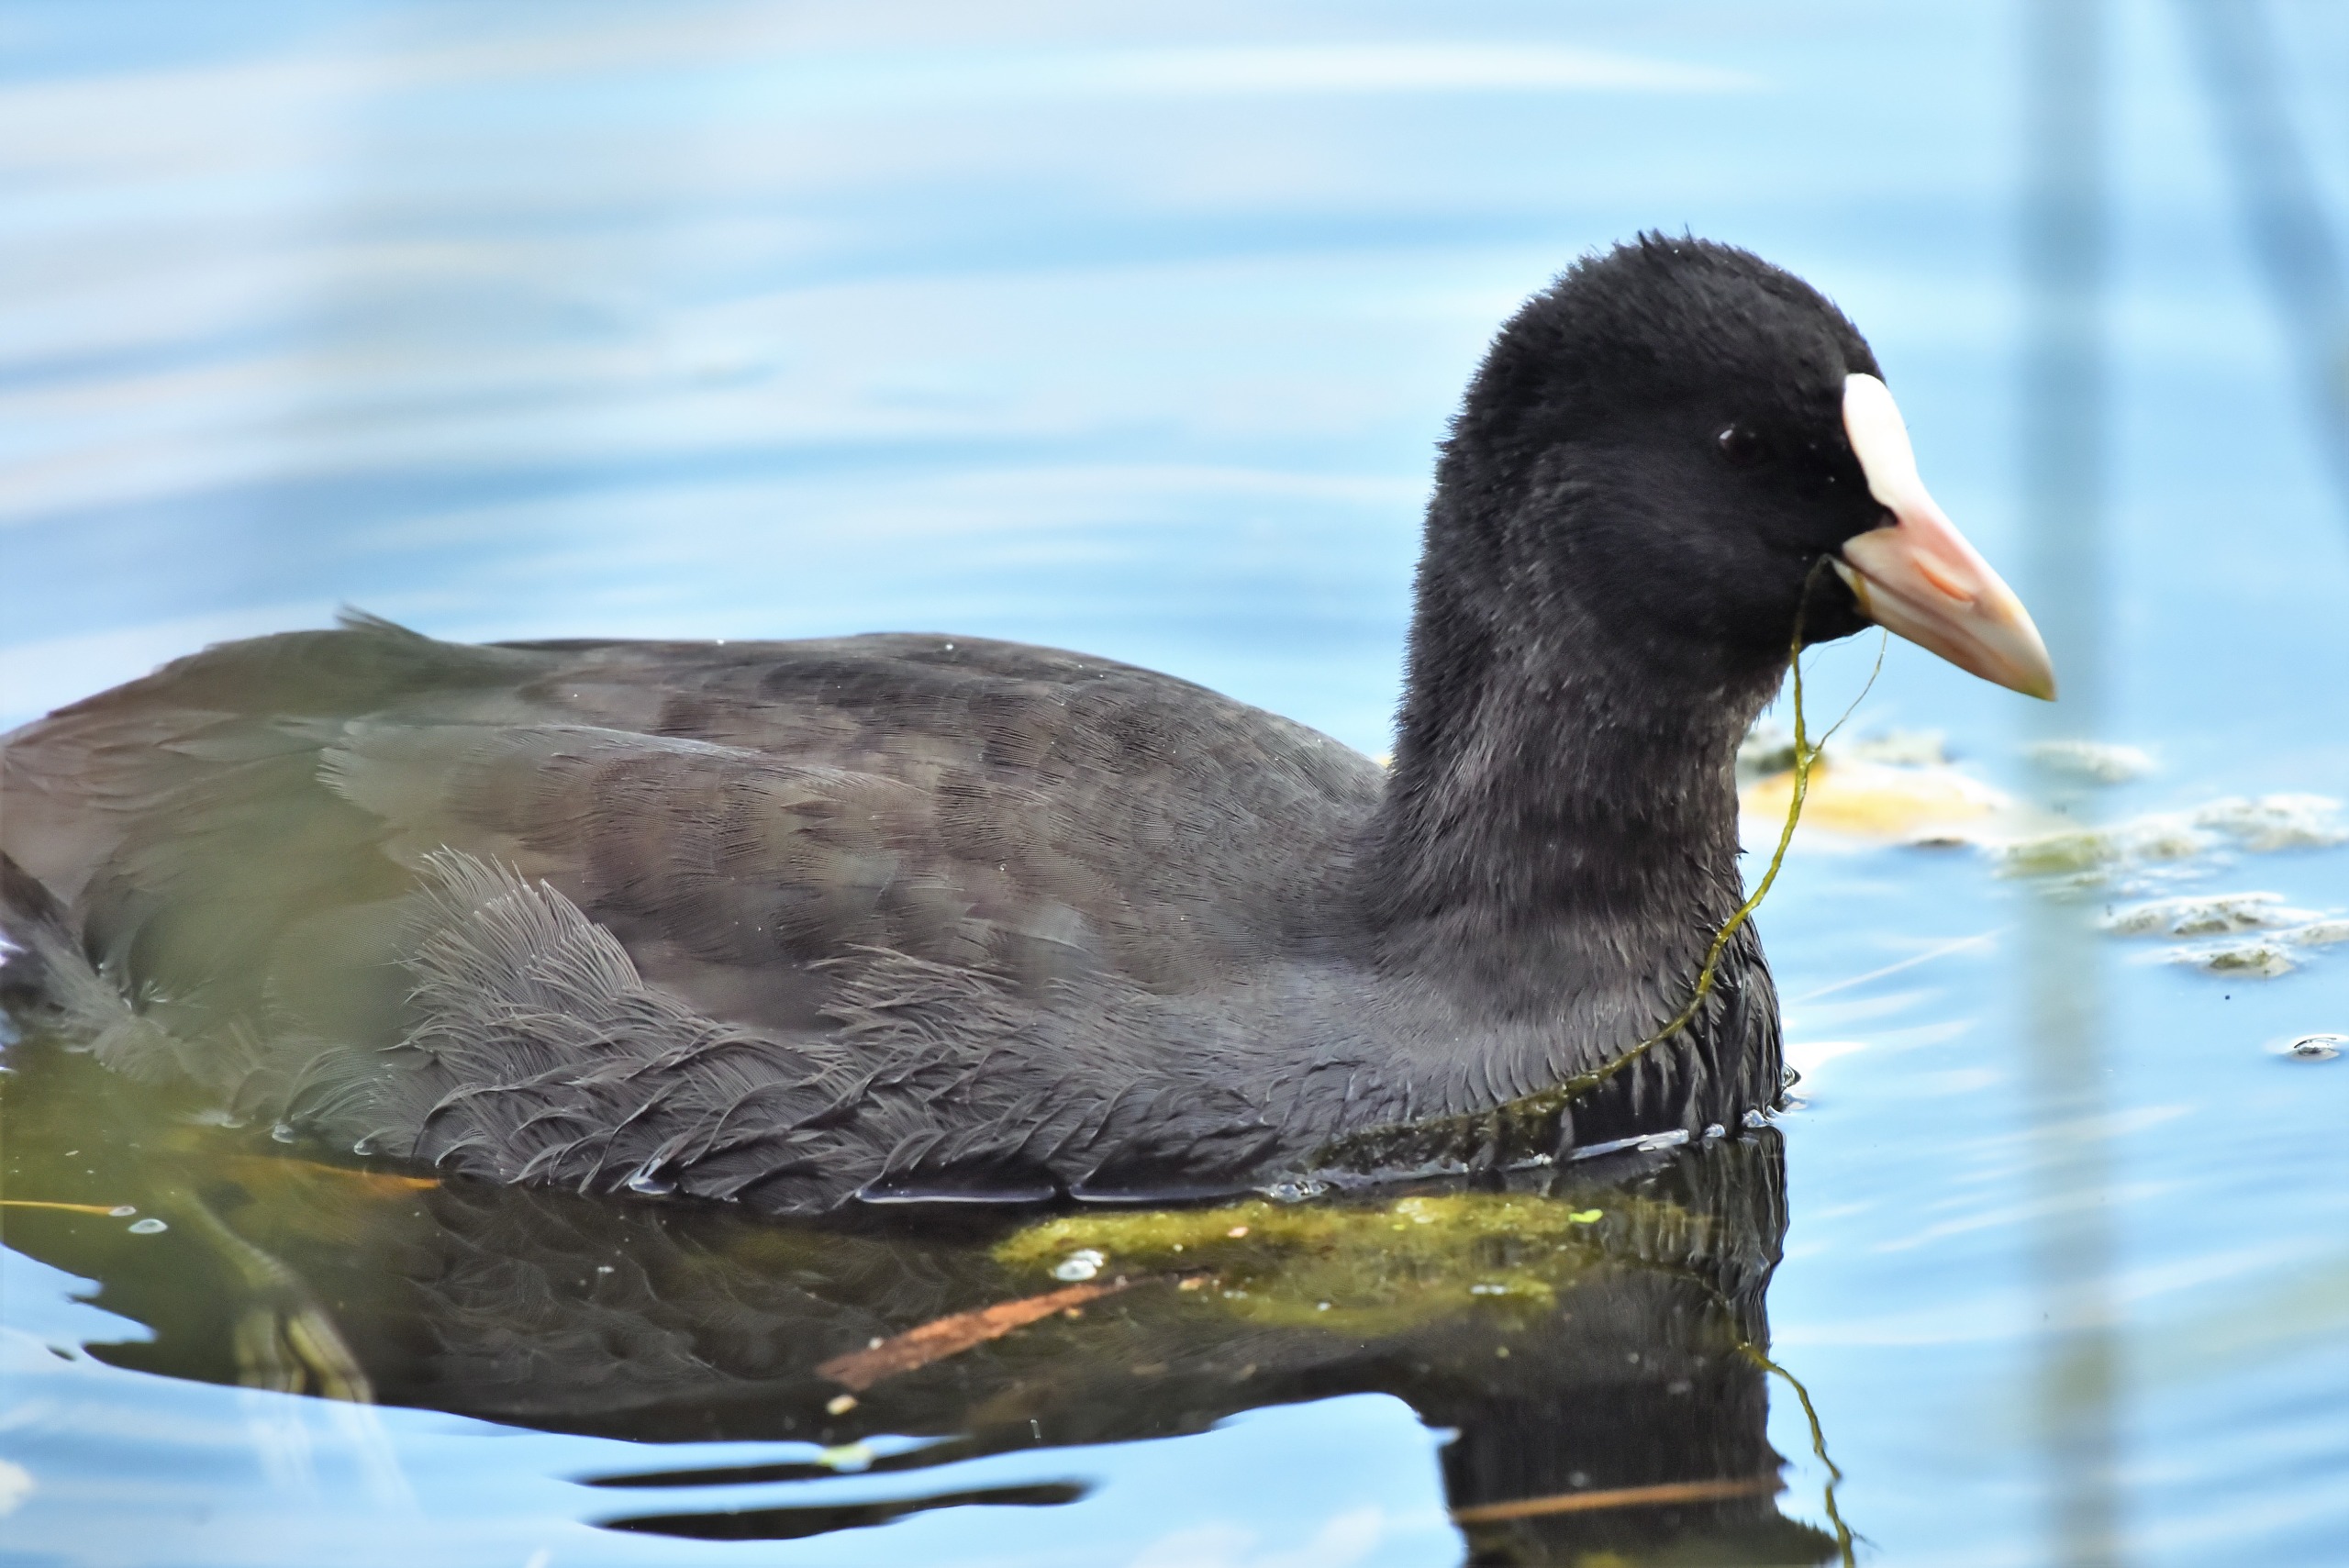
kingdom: Animalia
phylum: Chordata
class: Aves
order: Gruiformes
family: Rallidae
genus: Fulica
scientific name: Fulica atra
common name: Blishøne
